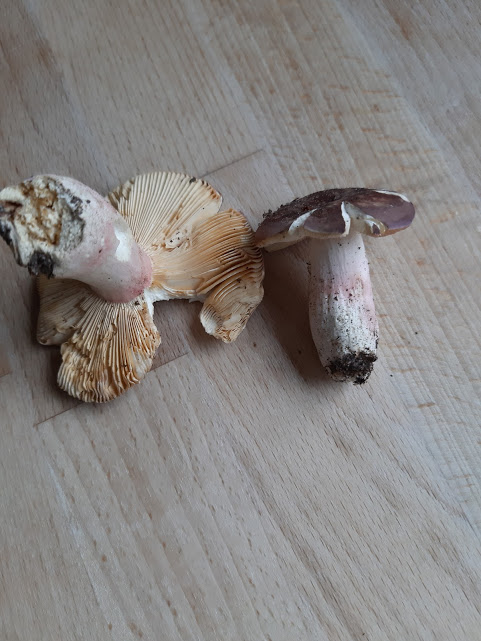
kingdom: Fungi
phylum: Basidiomycota
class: Agaricomycetes
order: Russulales
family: Russulaceae
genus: Russula
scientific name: Russula olivacea
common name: stor skørhat
